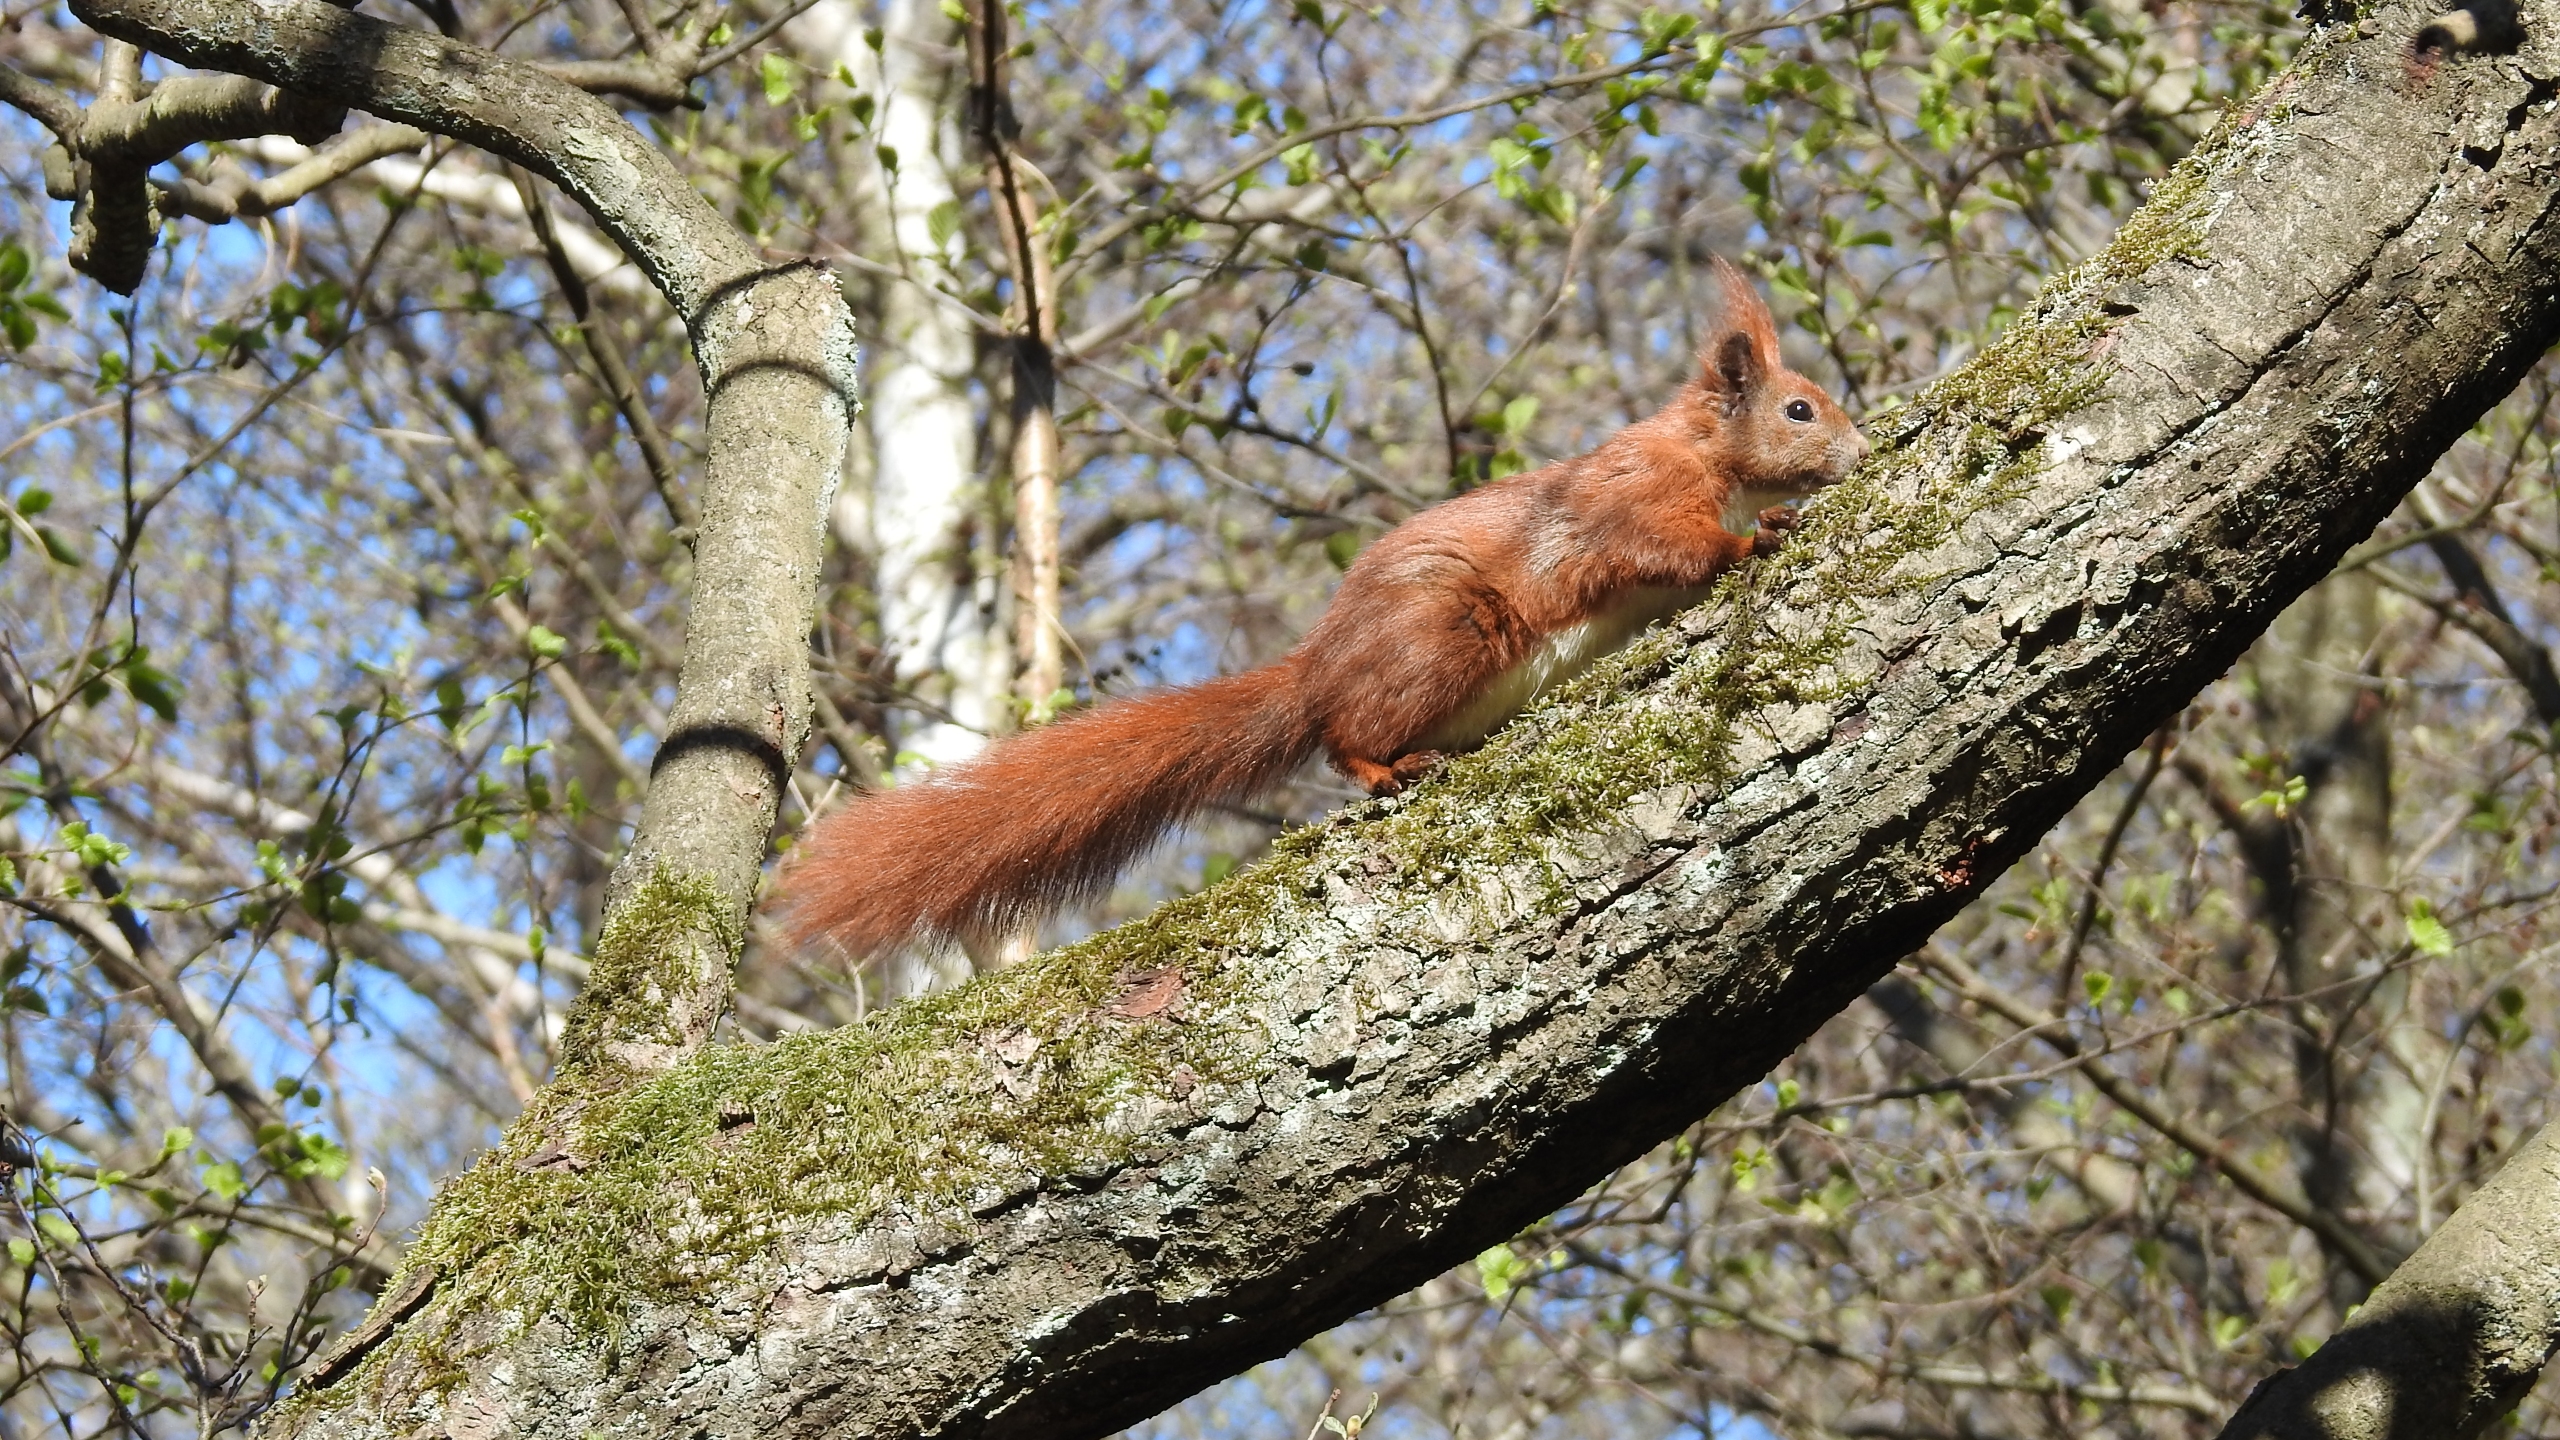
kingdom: Animalia
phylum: Chordata
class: Mammalia
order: Rodentia
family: Sciuridae
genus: Sciurus
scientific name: Sciurus vulgaris
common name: Egern
